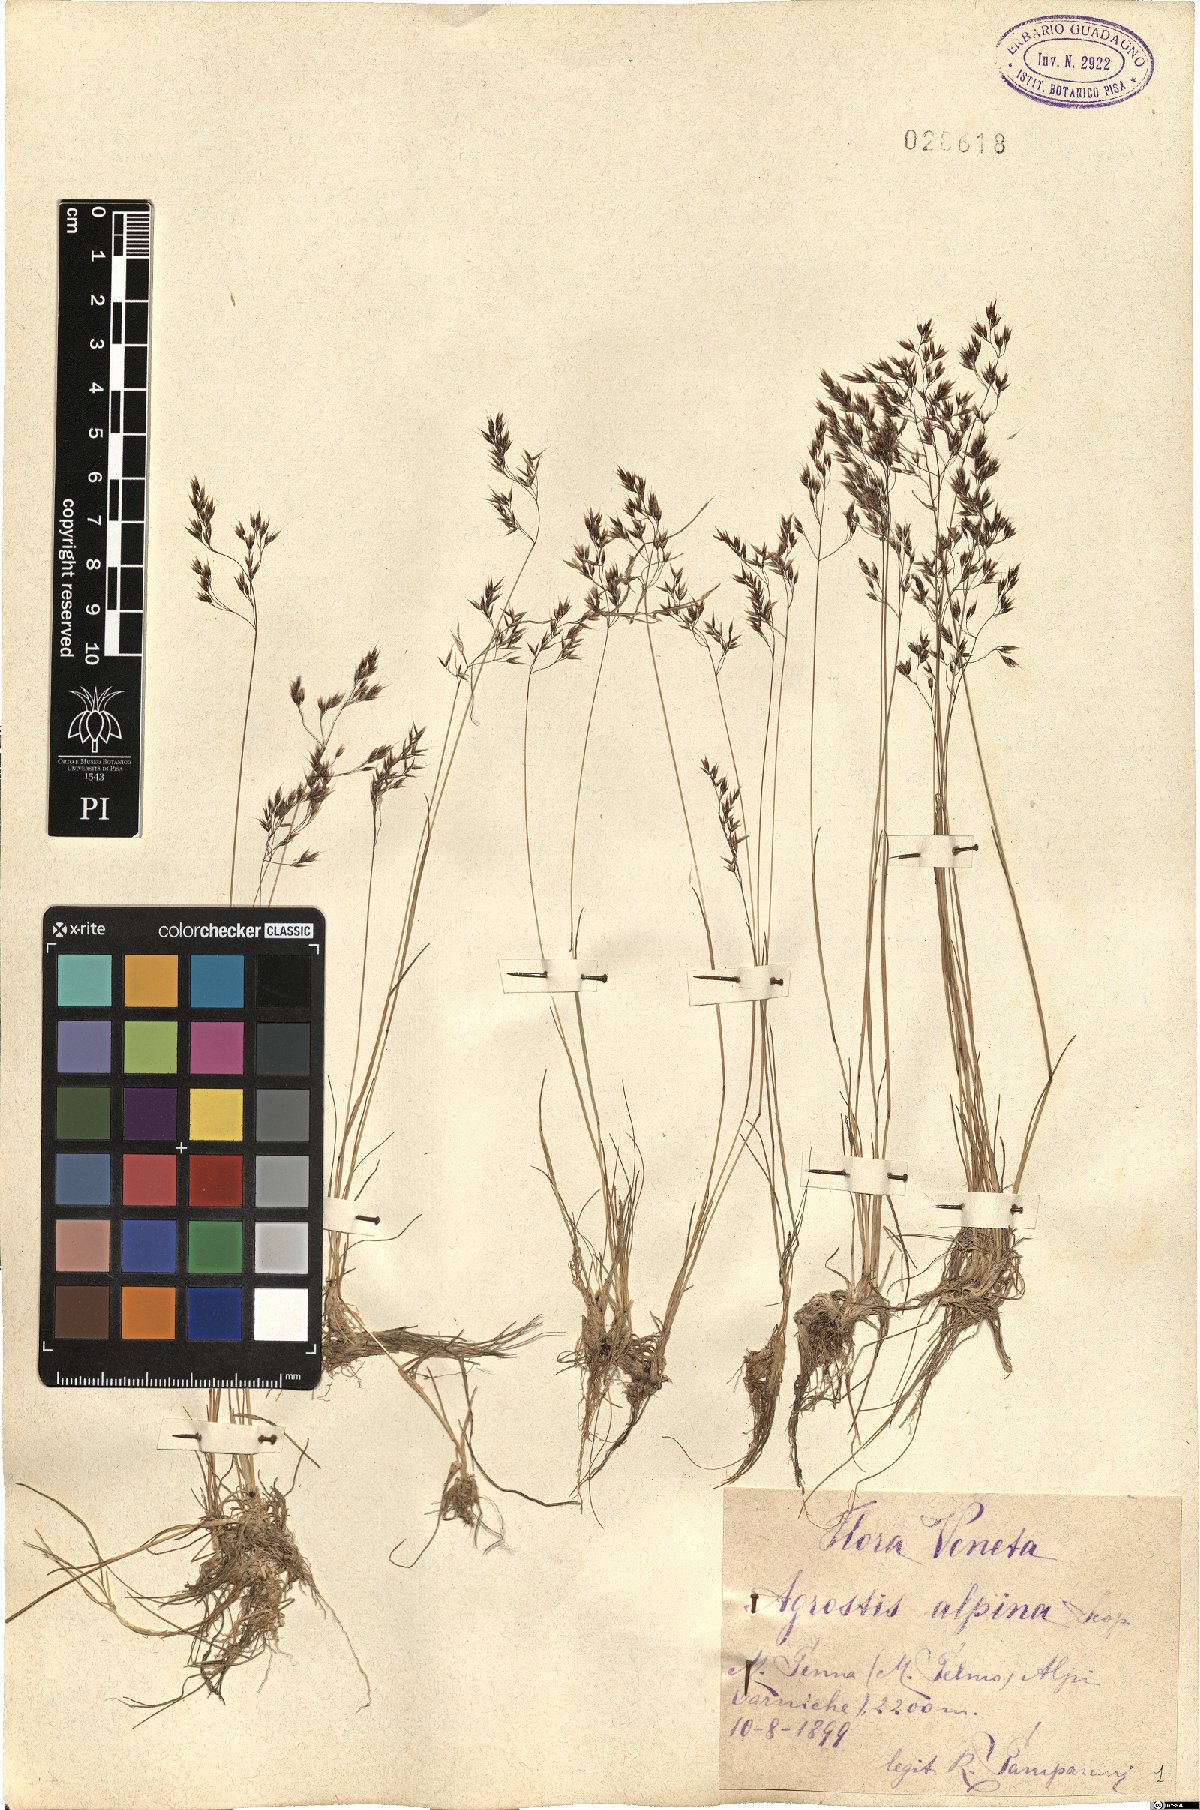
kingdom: Plantae
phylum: Tracheophyta
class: Liliopsida
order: Poales
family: Poaceae
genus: Alpagrostis
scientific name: Alpagrostis alpina
